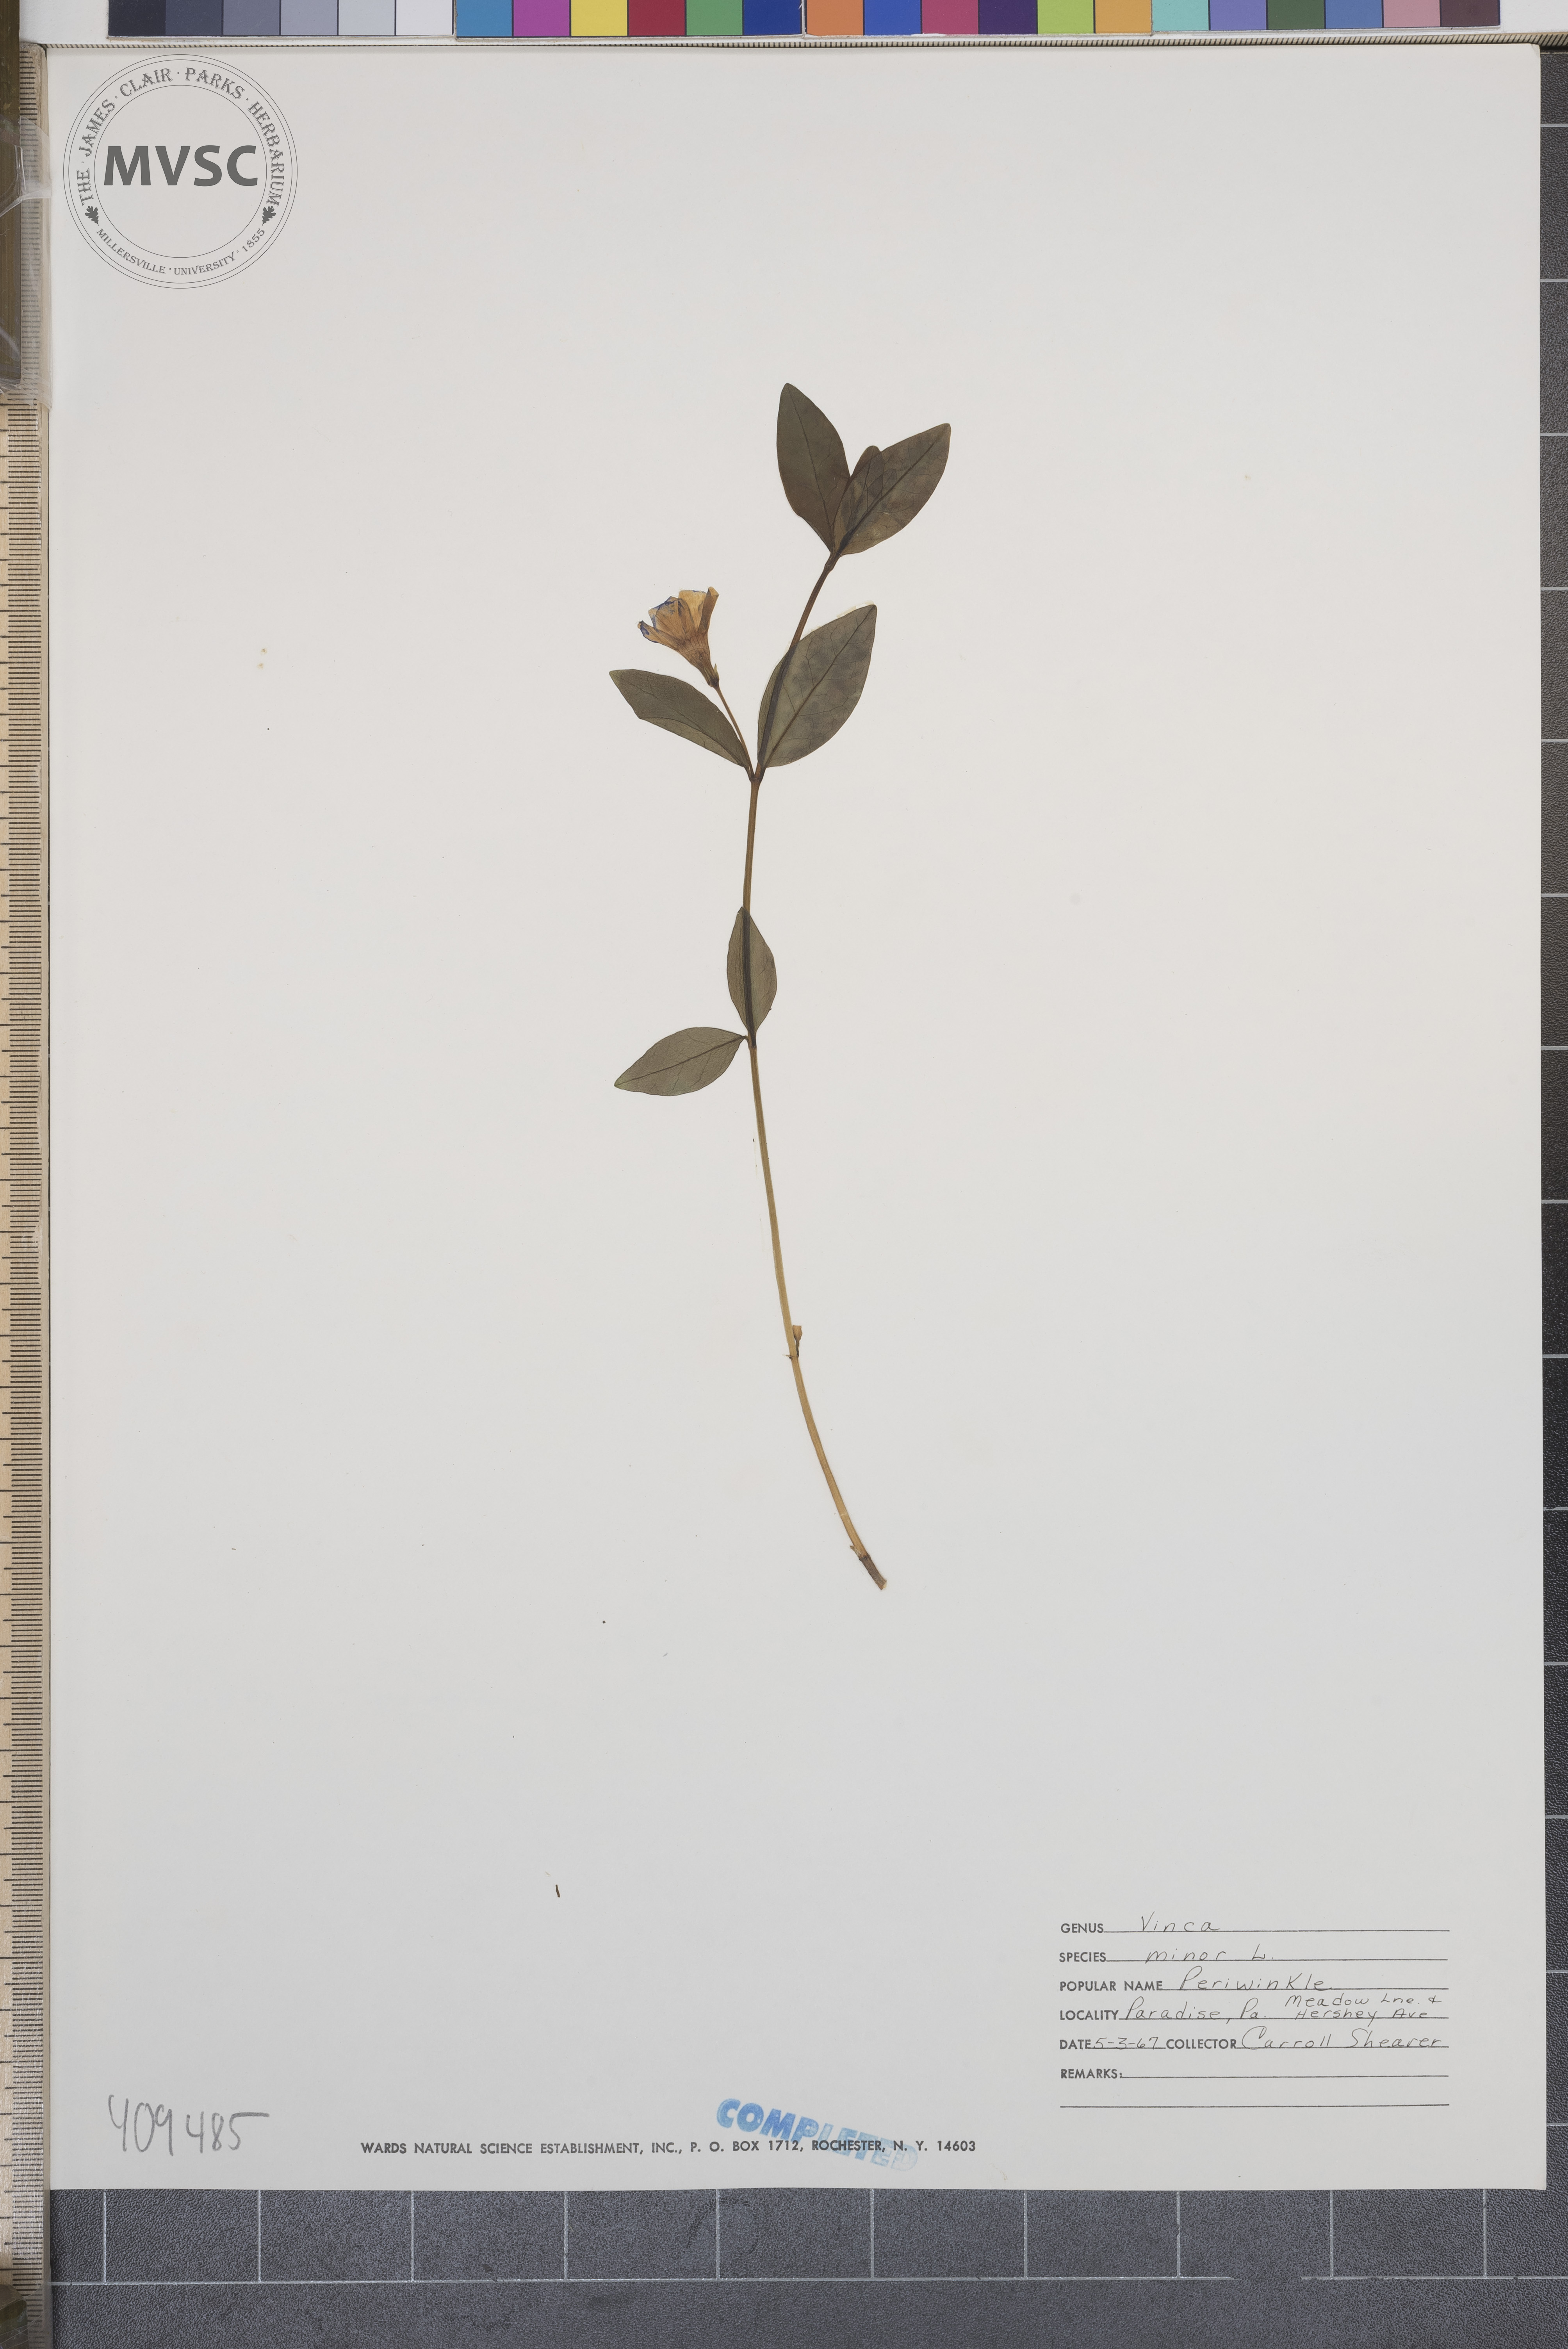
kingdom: Plantae
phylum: Tracheophyta
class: Magnoliopsida
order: Gentianales
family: Apocynaceae
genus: Vinca
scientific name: Vinca minor
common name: Lesser periwinkle
